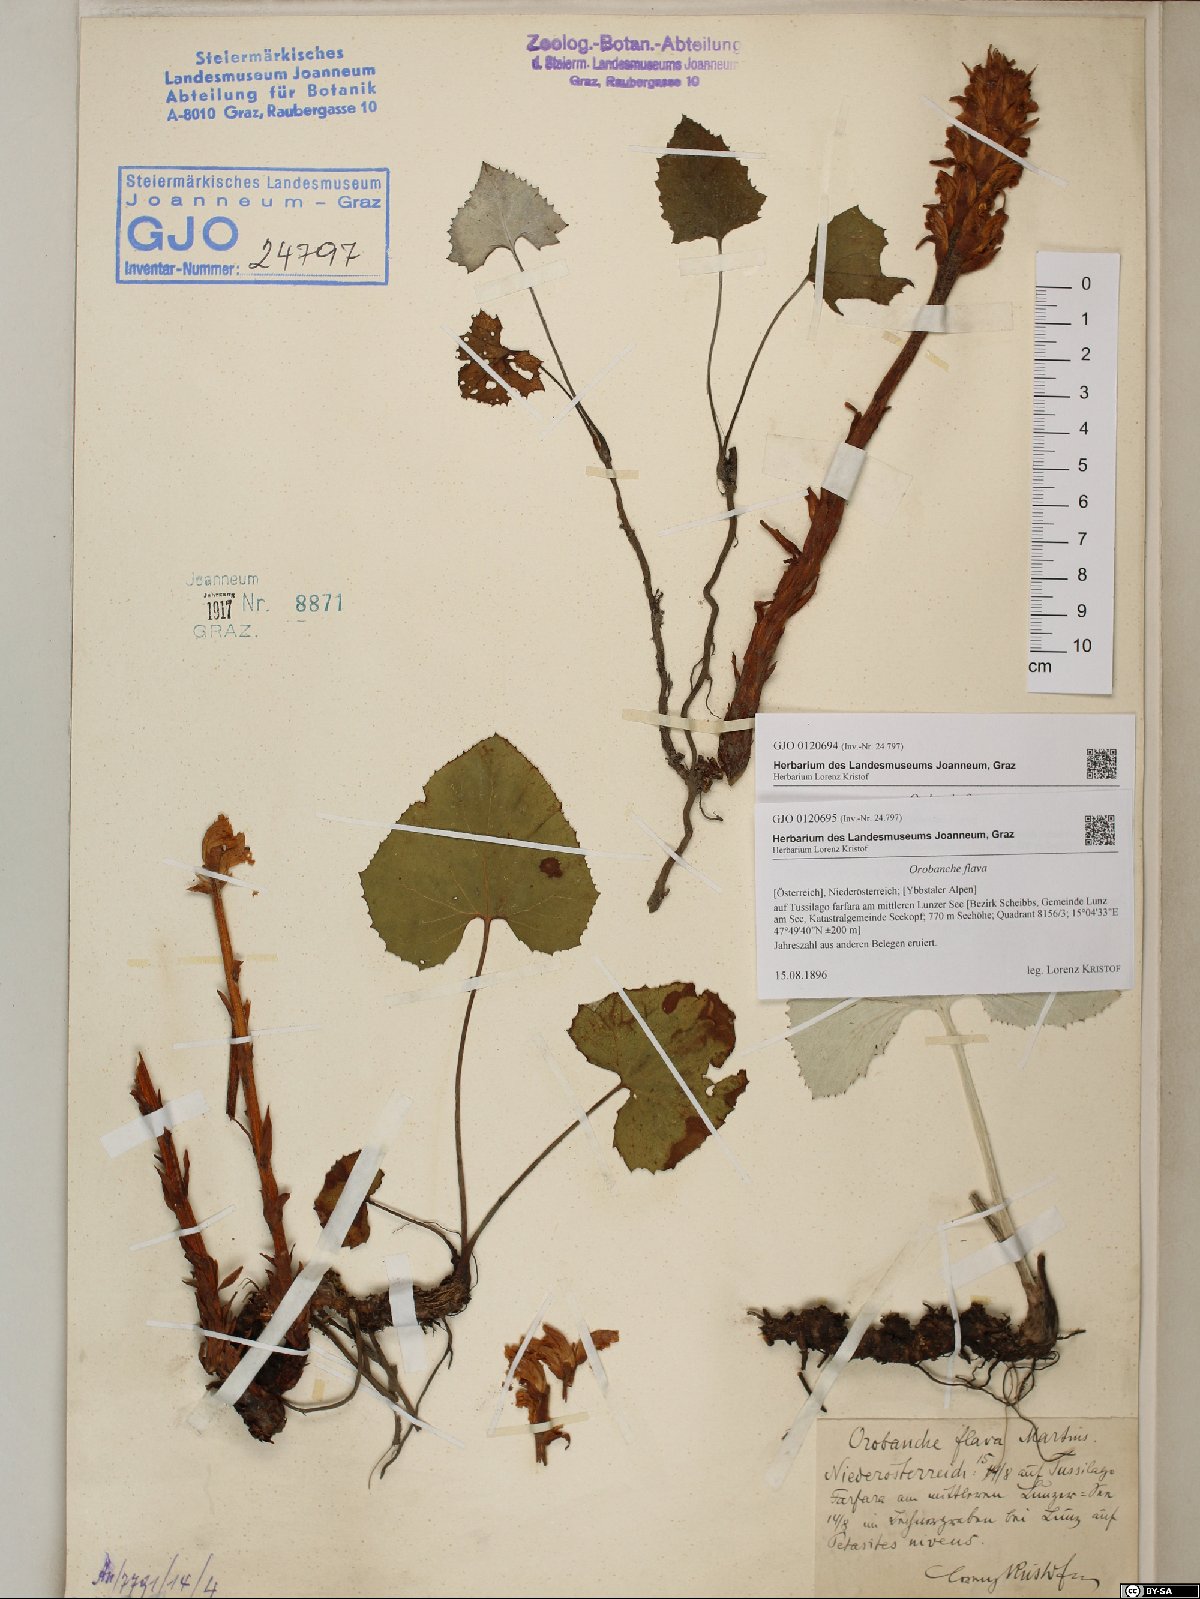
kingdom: Plantae
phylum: Tracheophyta
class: Magnoliopsida
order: Lamiales
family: Orobanchaceae
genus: Orobanche
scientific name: Orobanche flava
